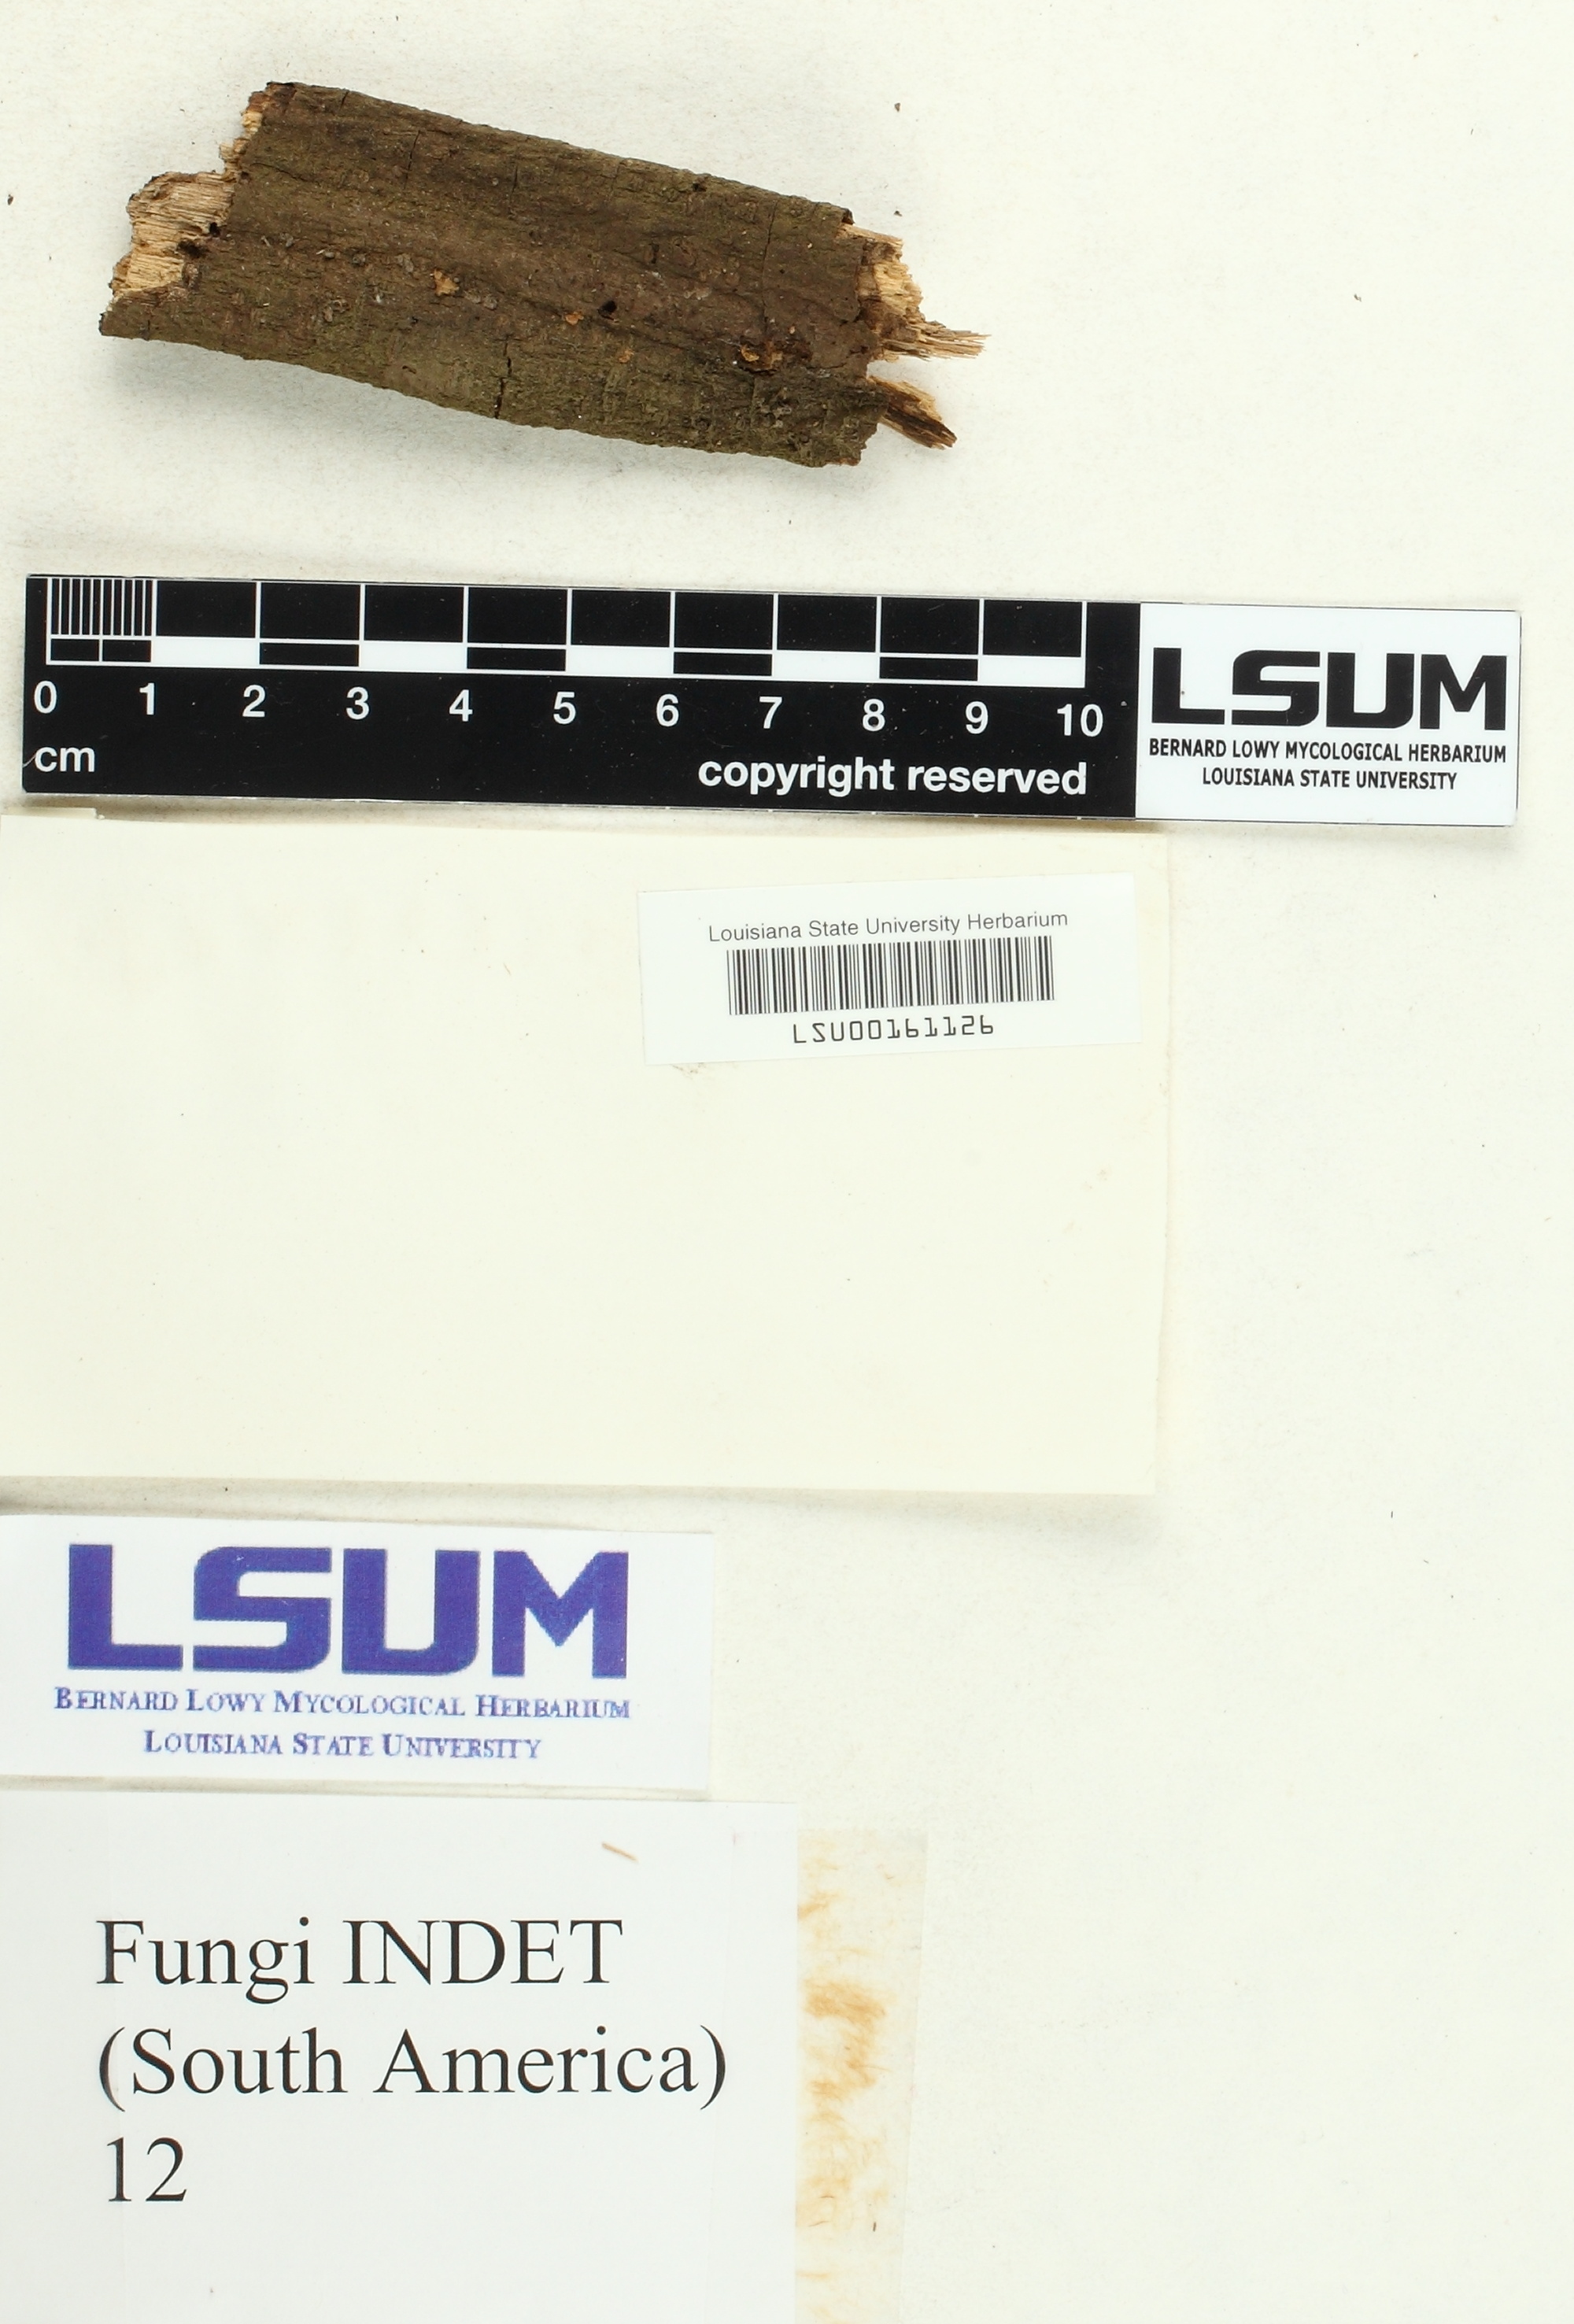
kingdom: Fungi
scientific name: Fungi
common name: Fungi
